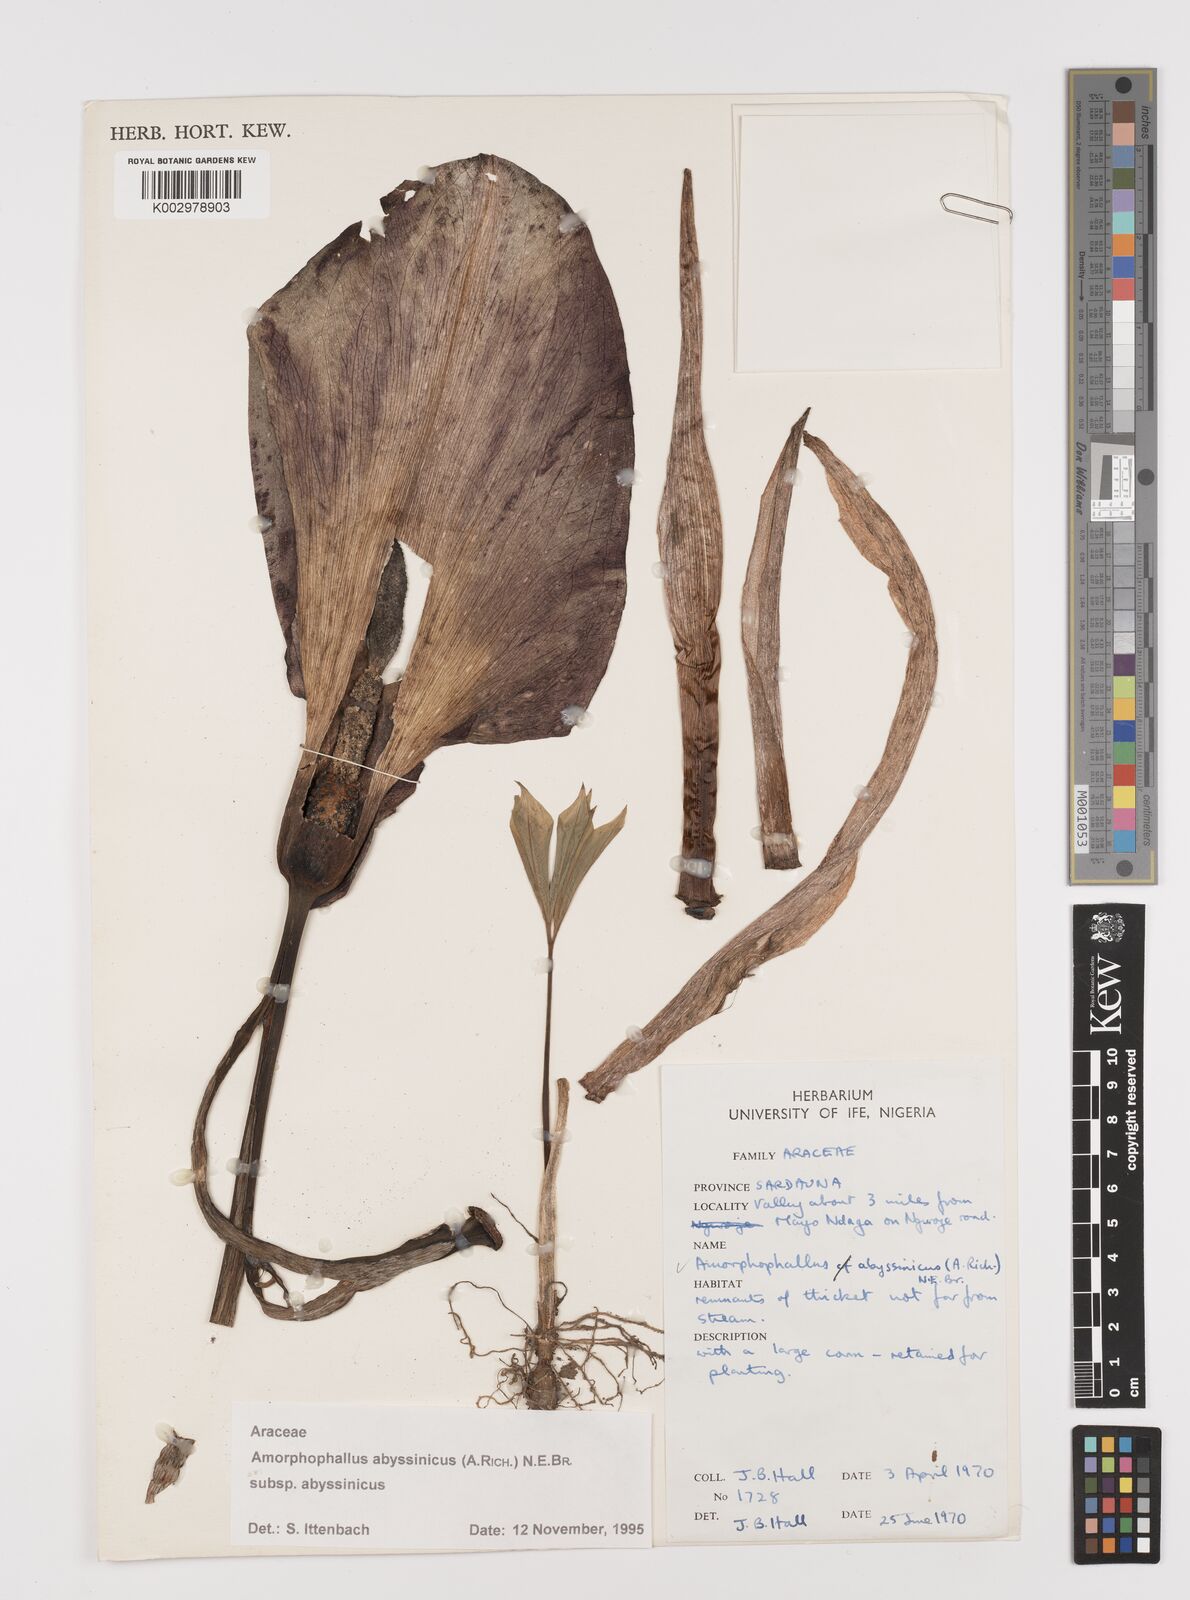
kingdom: Plantae
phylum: Tracheophyta
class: Liliopsida
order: Alismatales
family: Araceae
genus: Amorphophallus
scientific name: Amorphophallus abyssinicus
